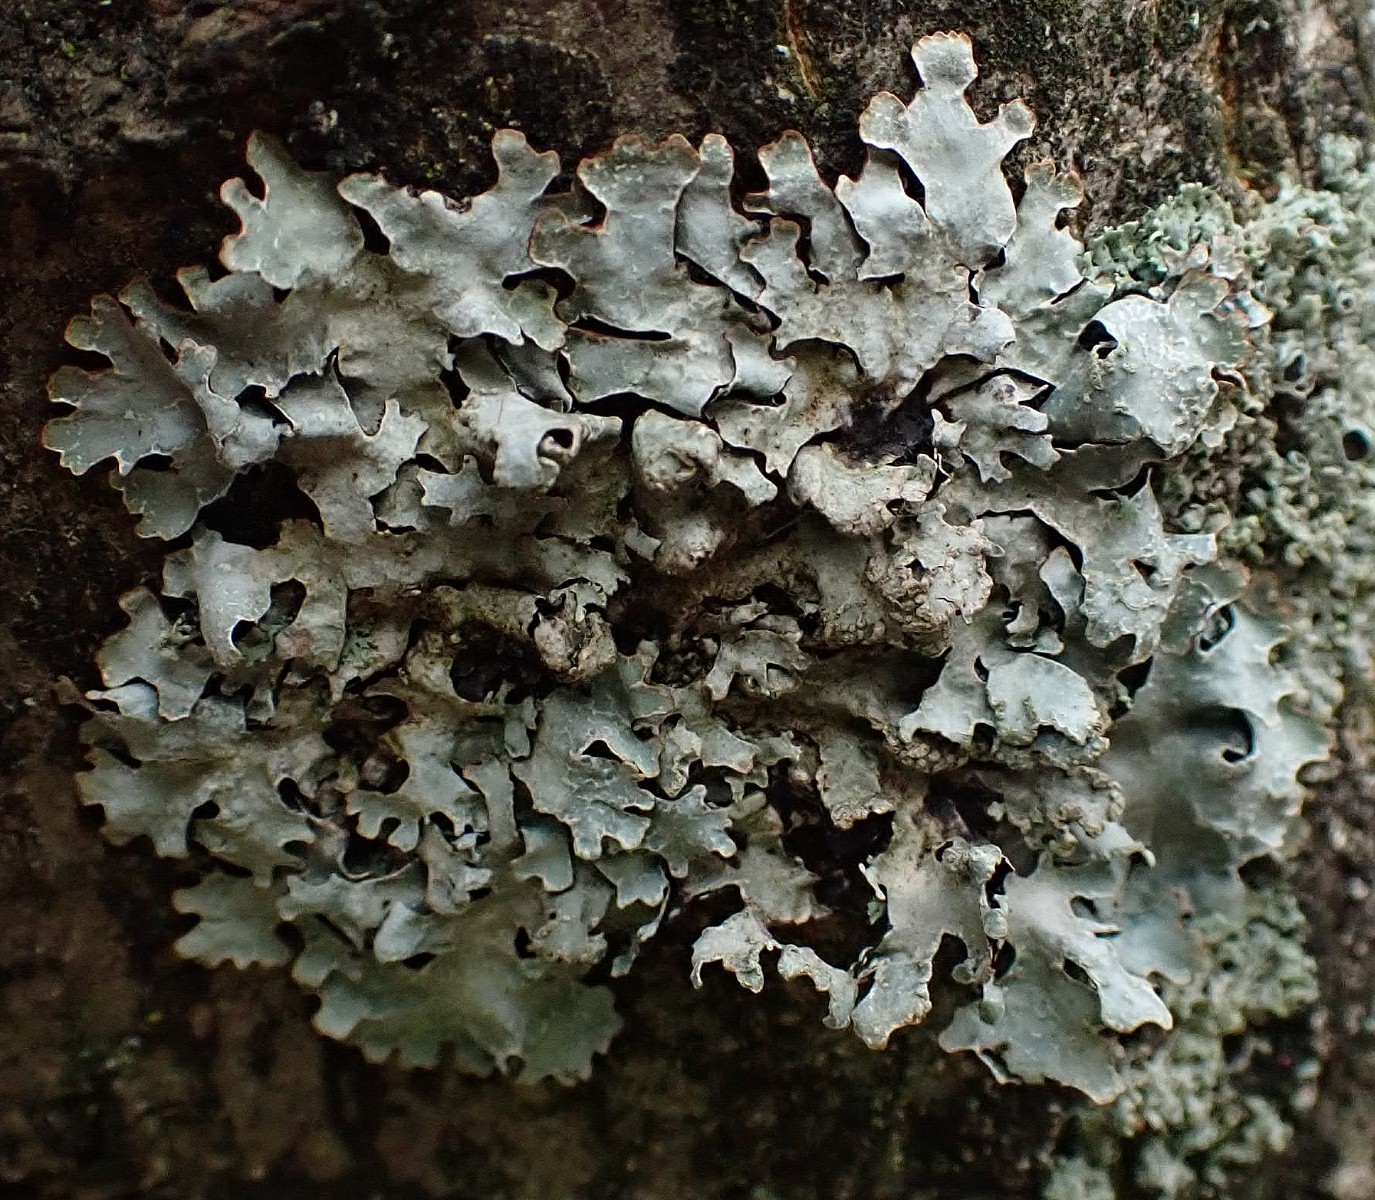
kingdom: Fungi
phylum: Ascomycota
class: Lecanoromycetes
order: Lecanorales
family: Parmeliaceae
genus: Parmelia
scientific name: Parmelia sulcata
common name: rynket skållav
